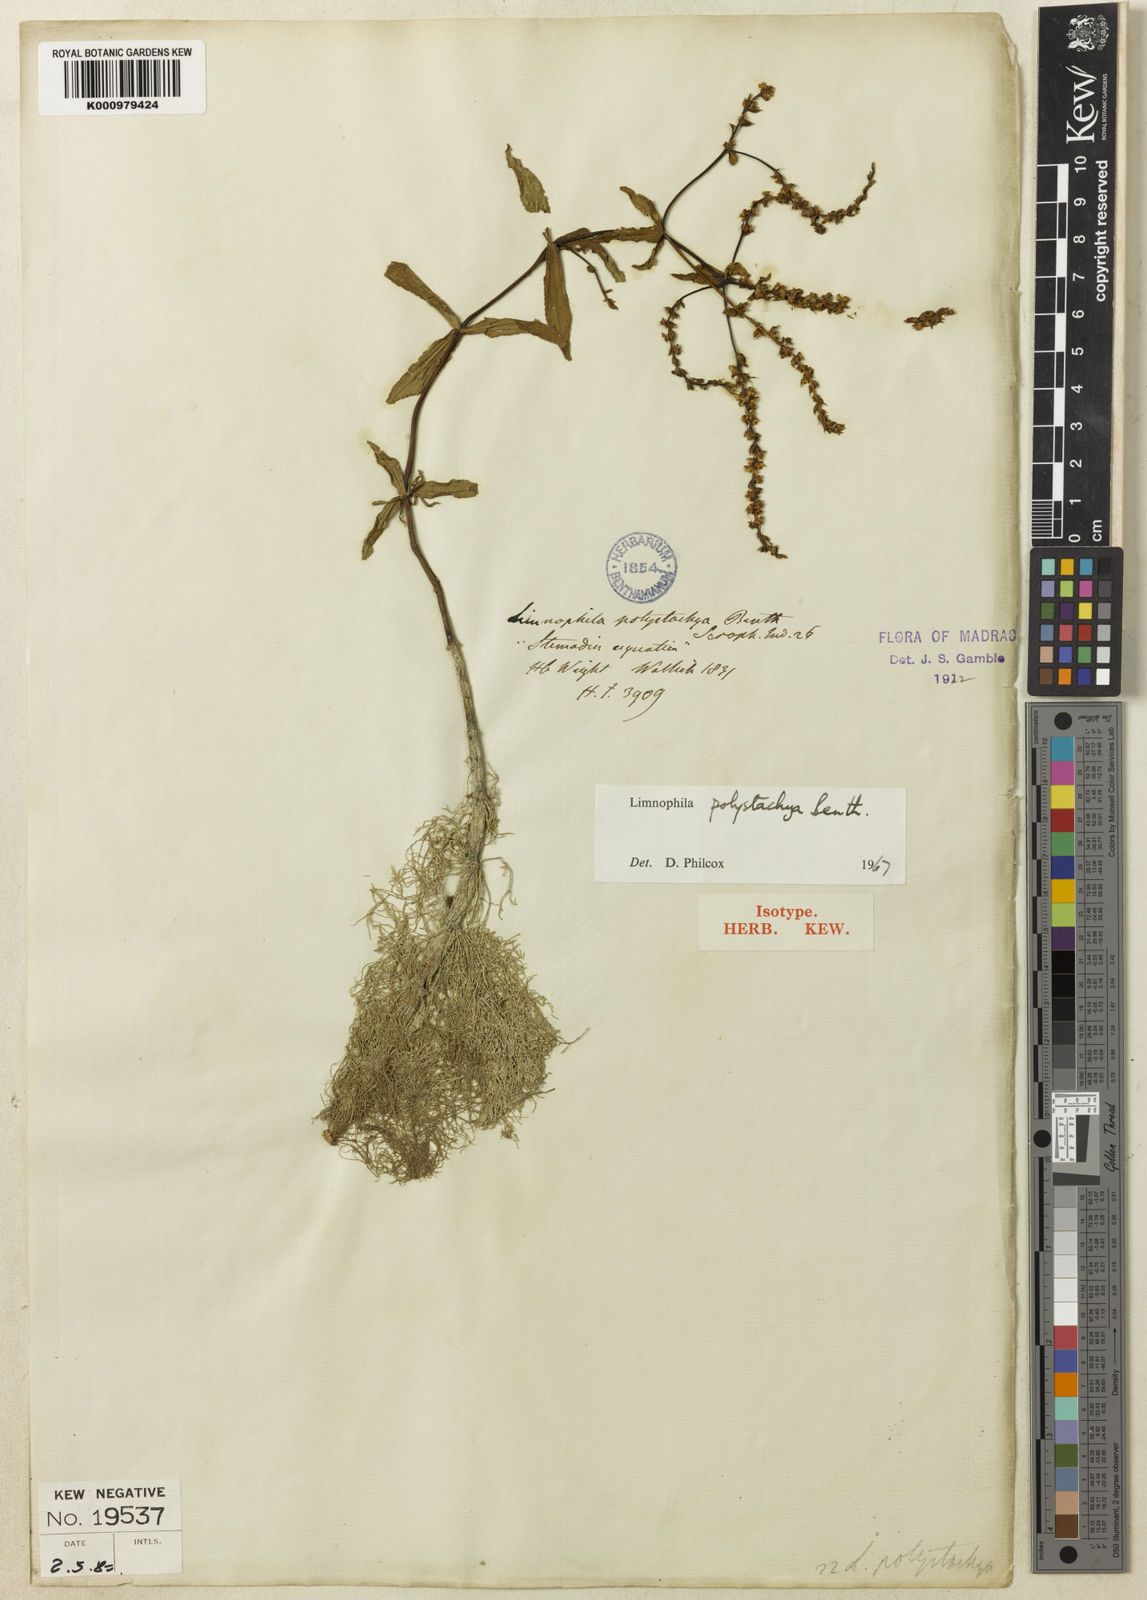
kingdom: Plantae
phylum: Tracheophyta
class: Magnoliopsida
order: Lamiales
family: Plantaginaceae
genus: Limnophila
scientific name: Limnophila polystachya
